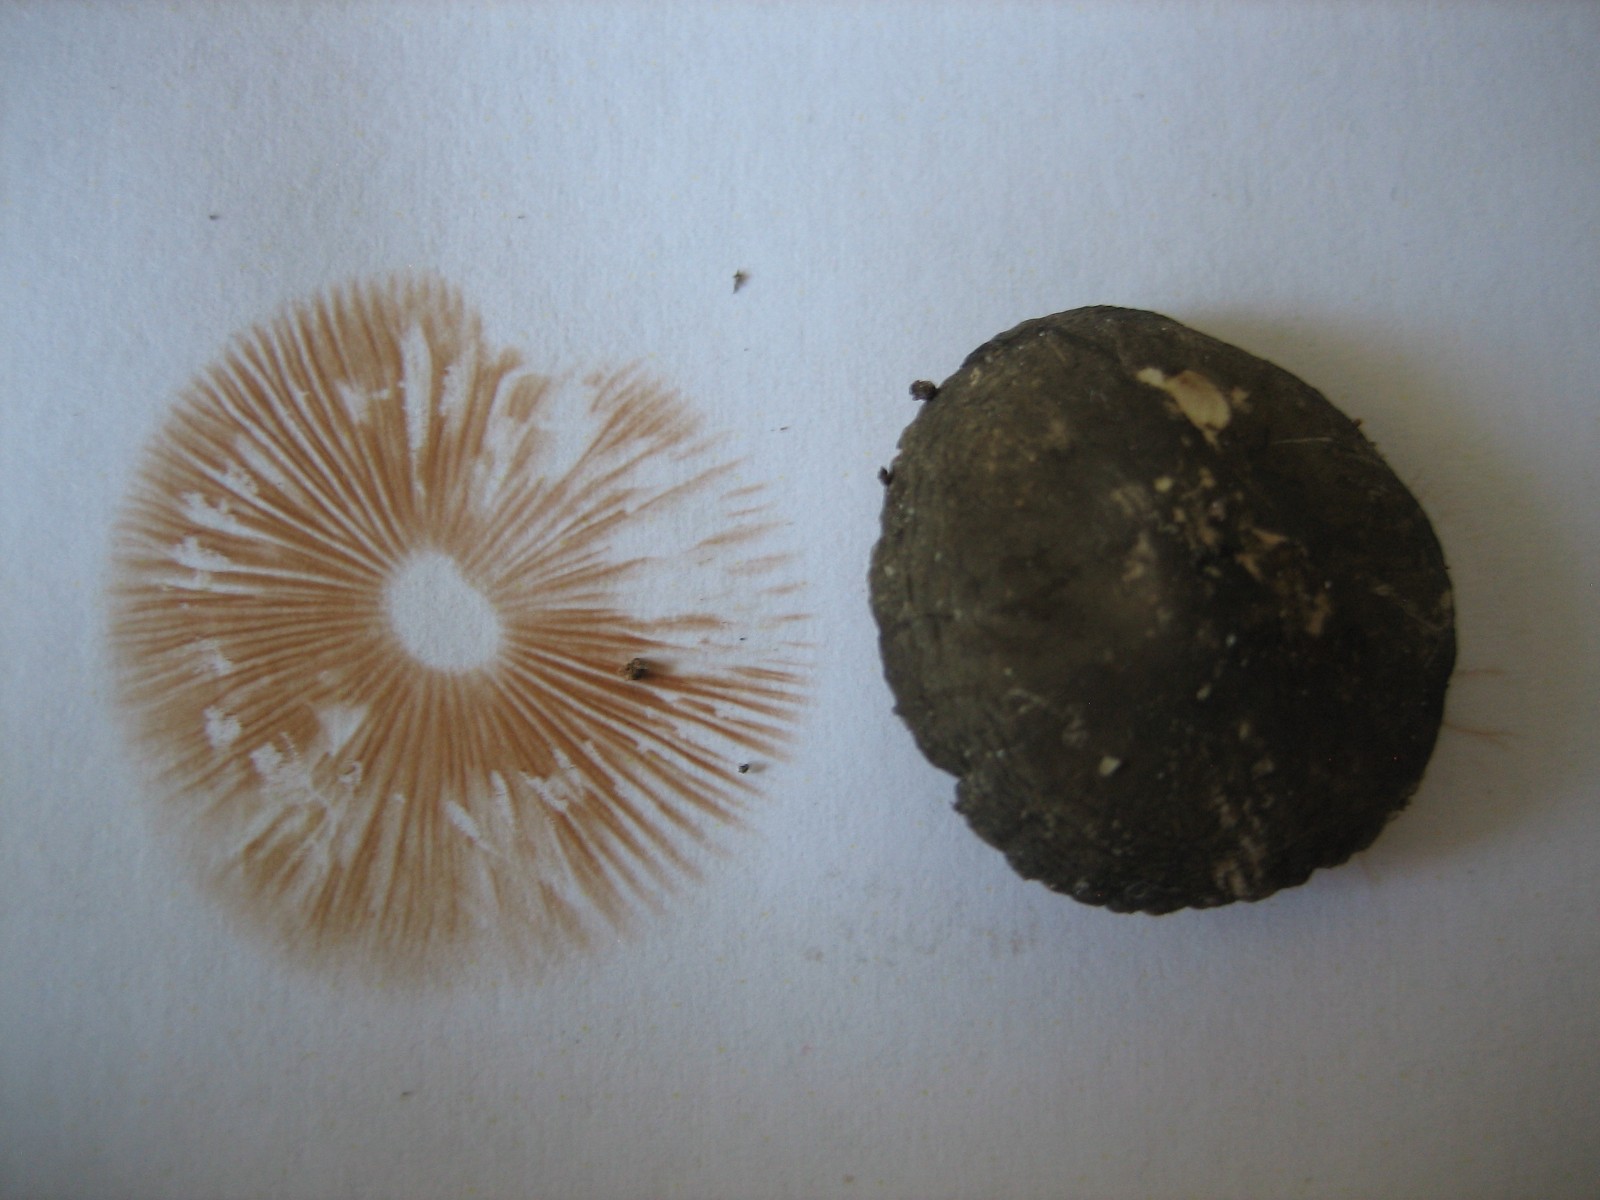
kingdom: Fungi
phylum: Basidiomycota
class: Agaricomycetes
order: Agaricales
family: Pluteaceae
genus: Pluteus
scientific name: Pluteus
